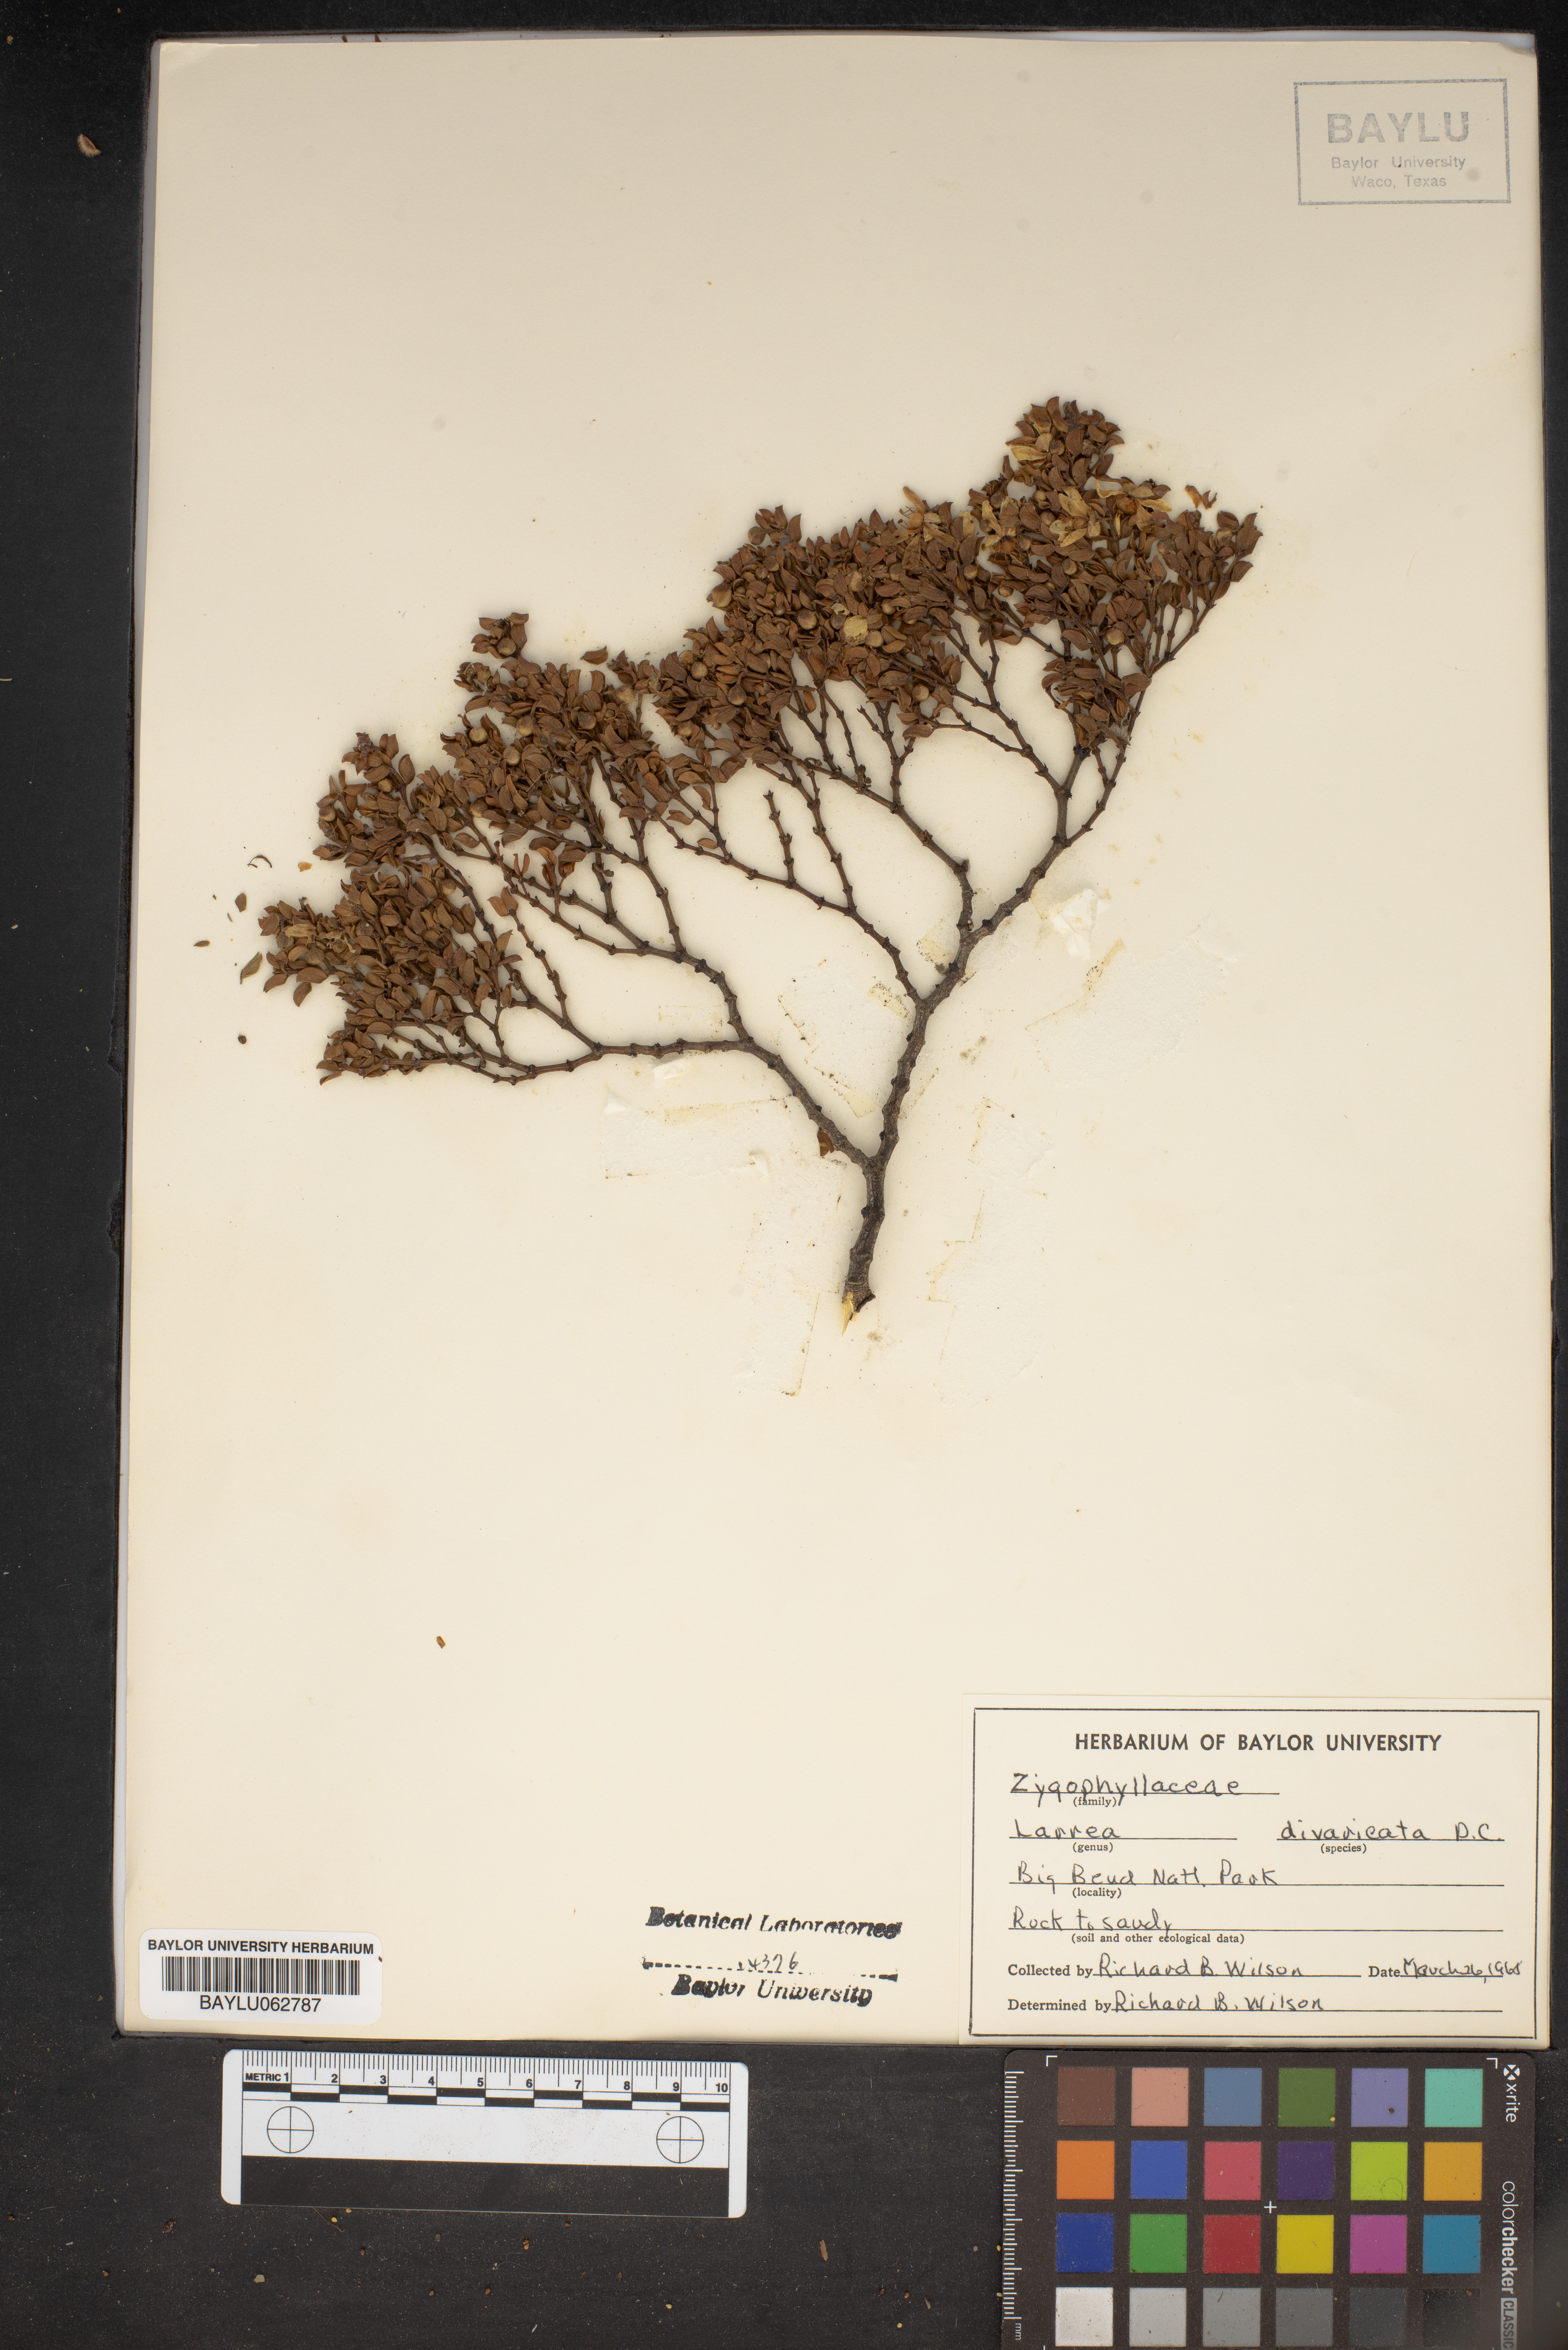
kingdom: Plantae
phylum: Tracheophyta
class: Magnoliopsida
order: Zygophyllales
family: Zygophyllaceae
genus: Larrea
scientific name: Larrea divaricata
